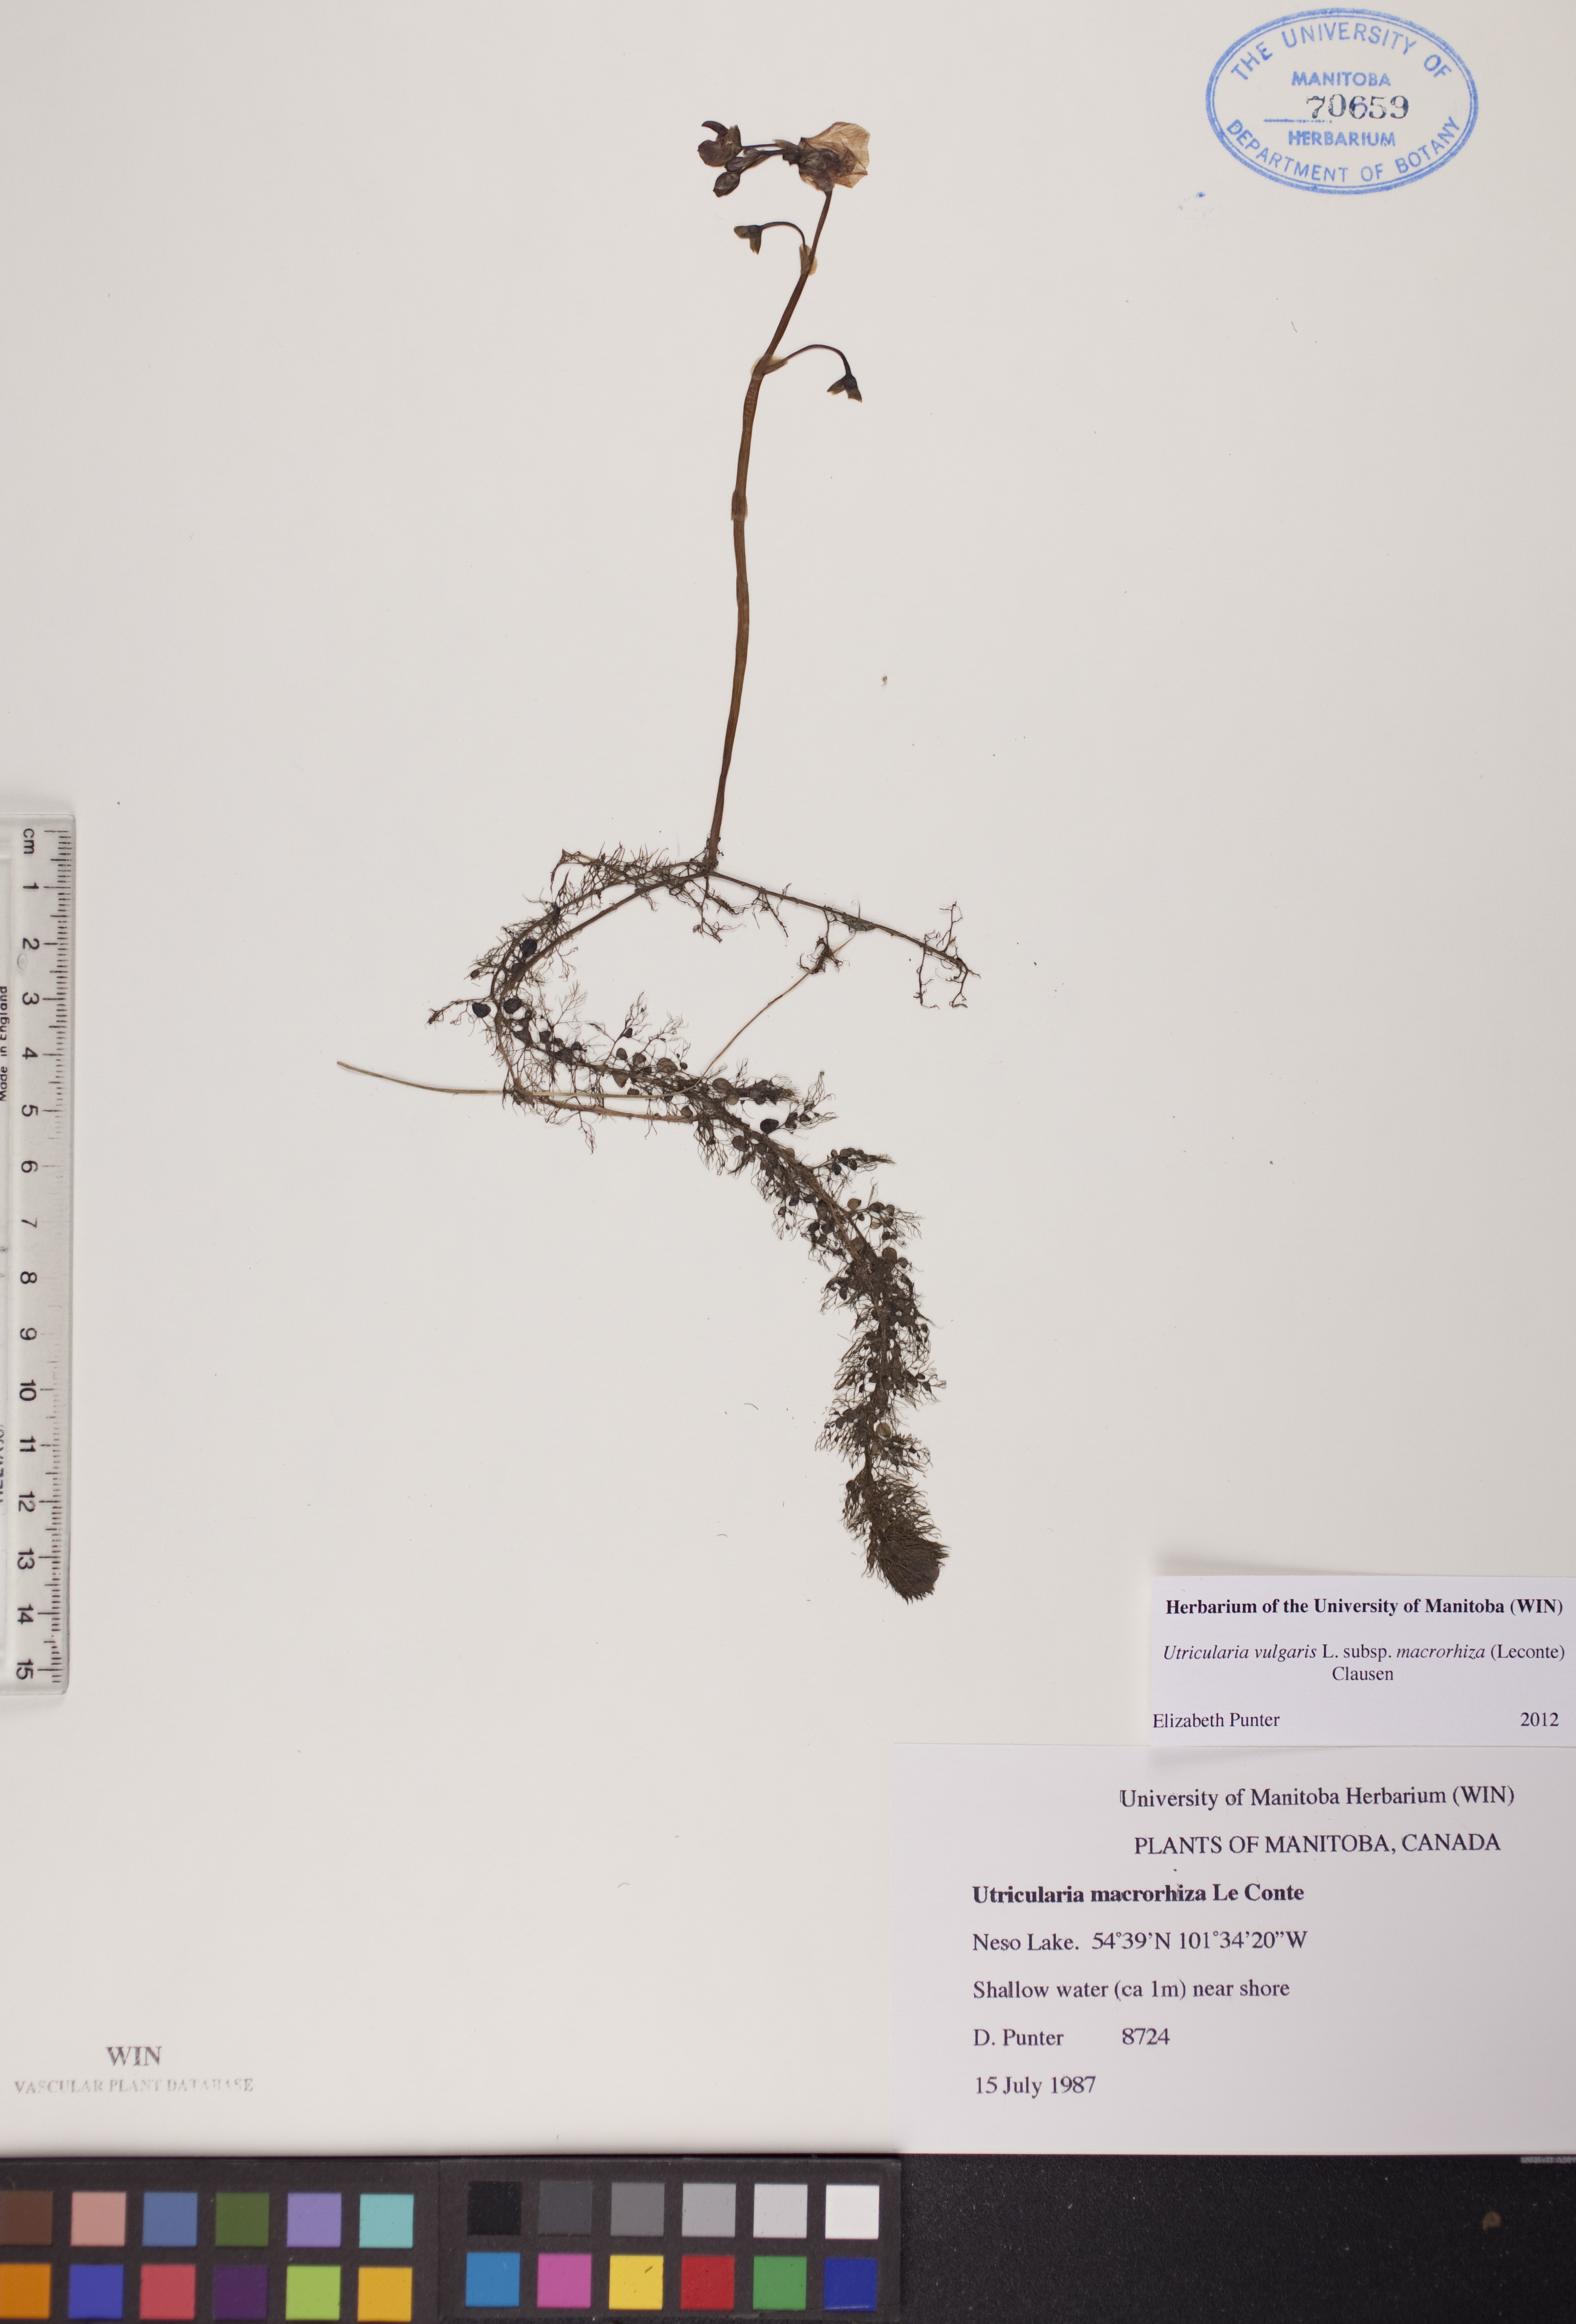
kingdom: Plantae
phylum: Tracheophyta
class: Magnoliopsida
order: Lamiales
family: Lentibulariaceae
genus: Utricularia
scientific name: Utricularia macrorhiza
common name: Common bladderwort
